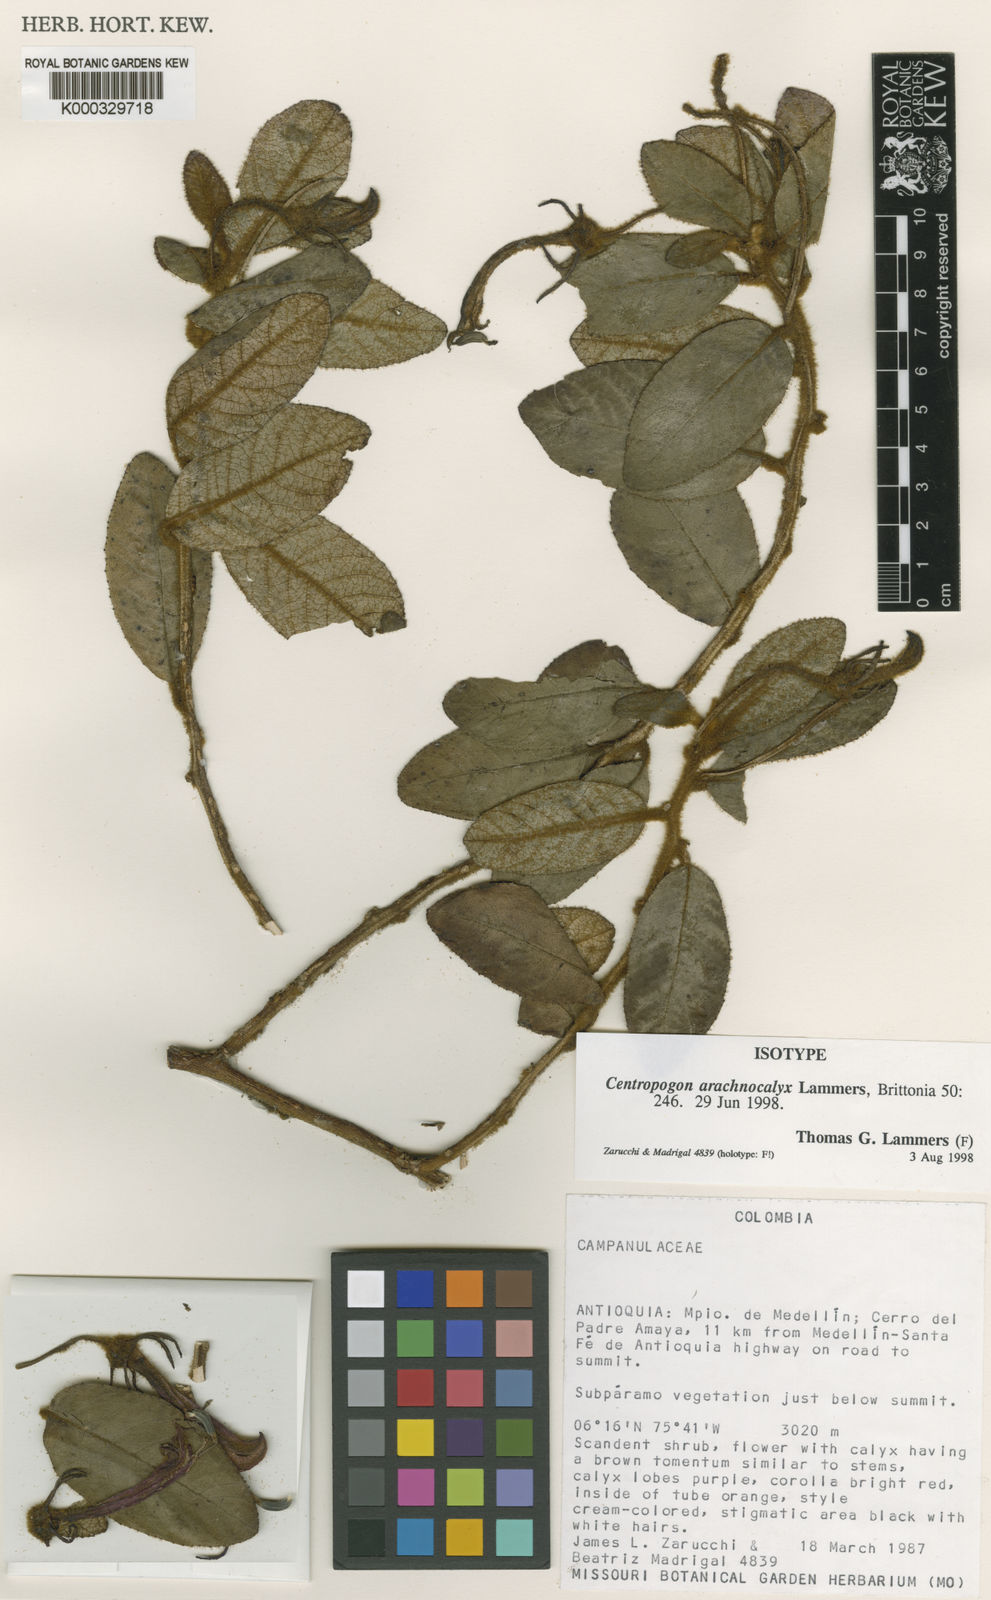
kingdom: Plantae
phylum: Tracheophyta
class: Magnoliopsida
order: Asterales
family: Campanulaceae
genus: Centropogon
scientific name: Centropogon arachnocalyx
